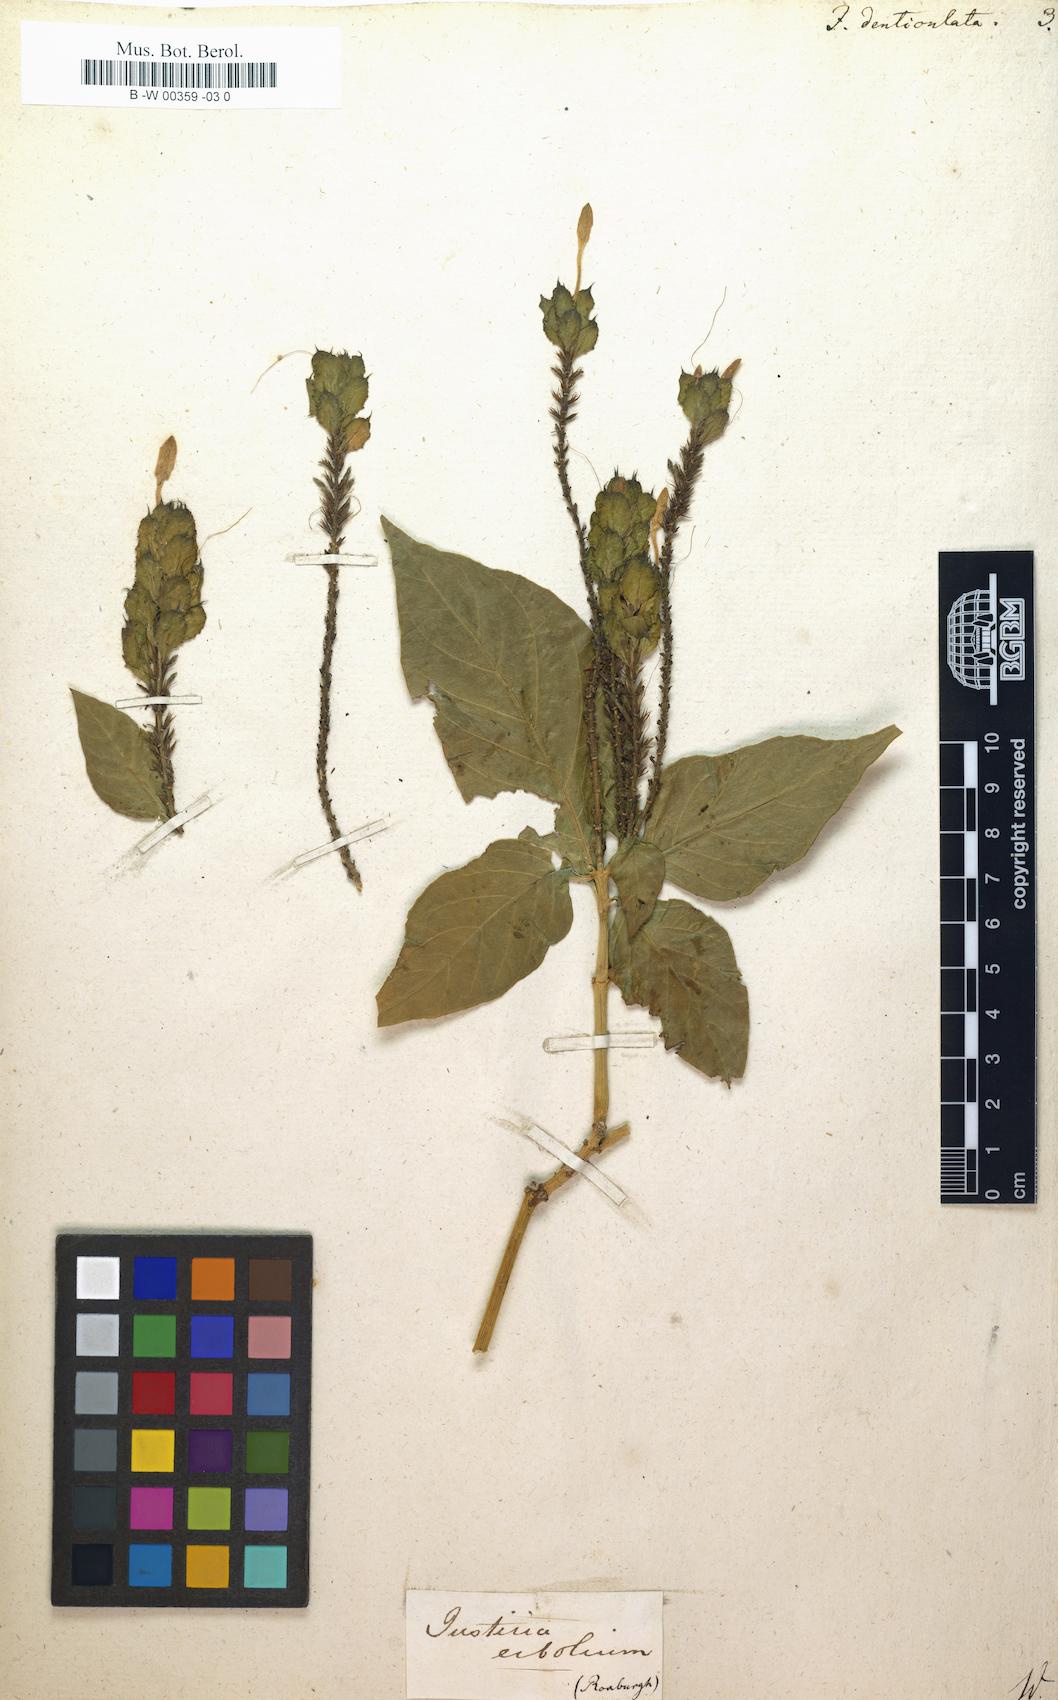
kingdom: Plantae
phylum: Tracheophyta
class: Magnoliopsida
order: Lamiales
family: Acanthaceae
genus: Ecbolium
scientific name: Ecbolium ligustrinum
